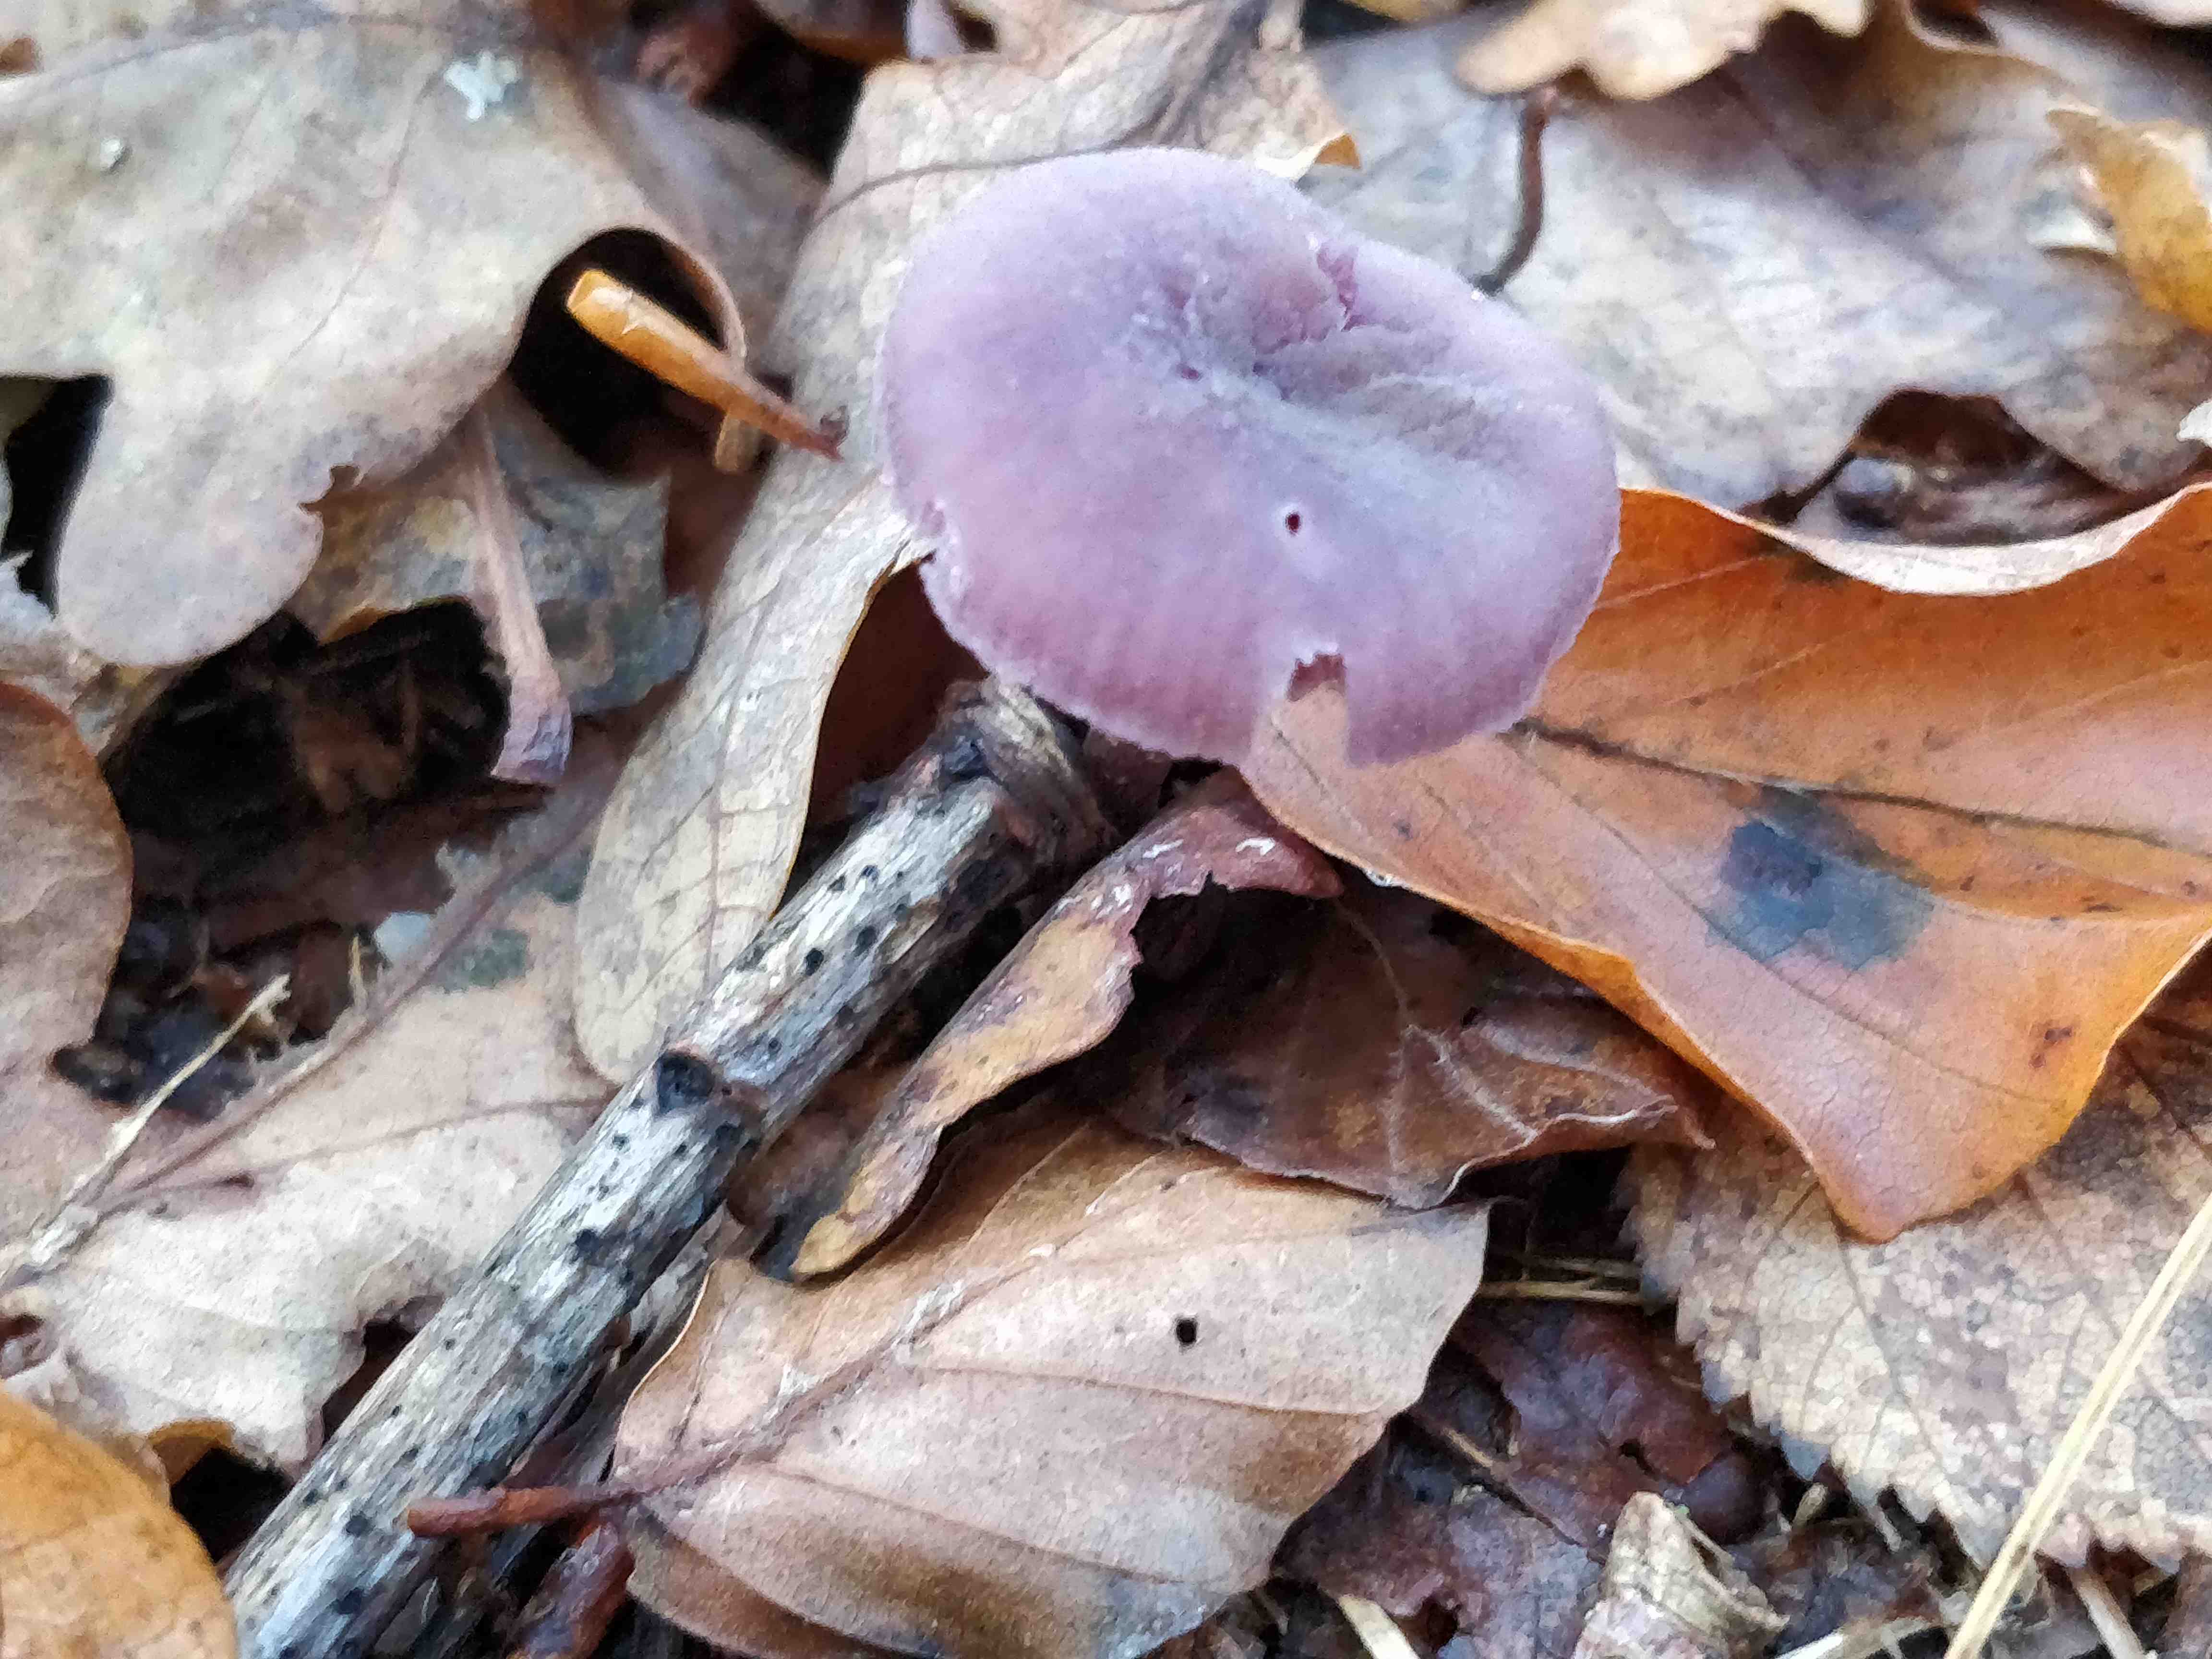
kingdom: Fungi
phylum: Basidiomycota
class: Agaricomycetes
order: Agaricales
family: Hydnangiaceae
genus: Laccaria
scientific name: Laccaria amethystina
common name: violet ametysthat
